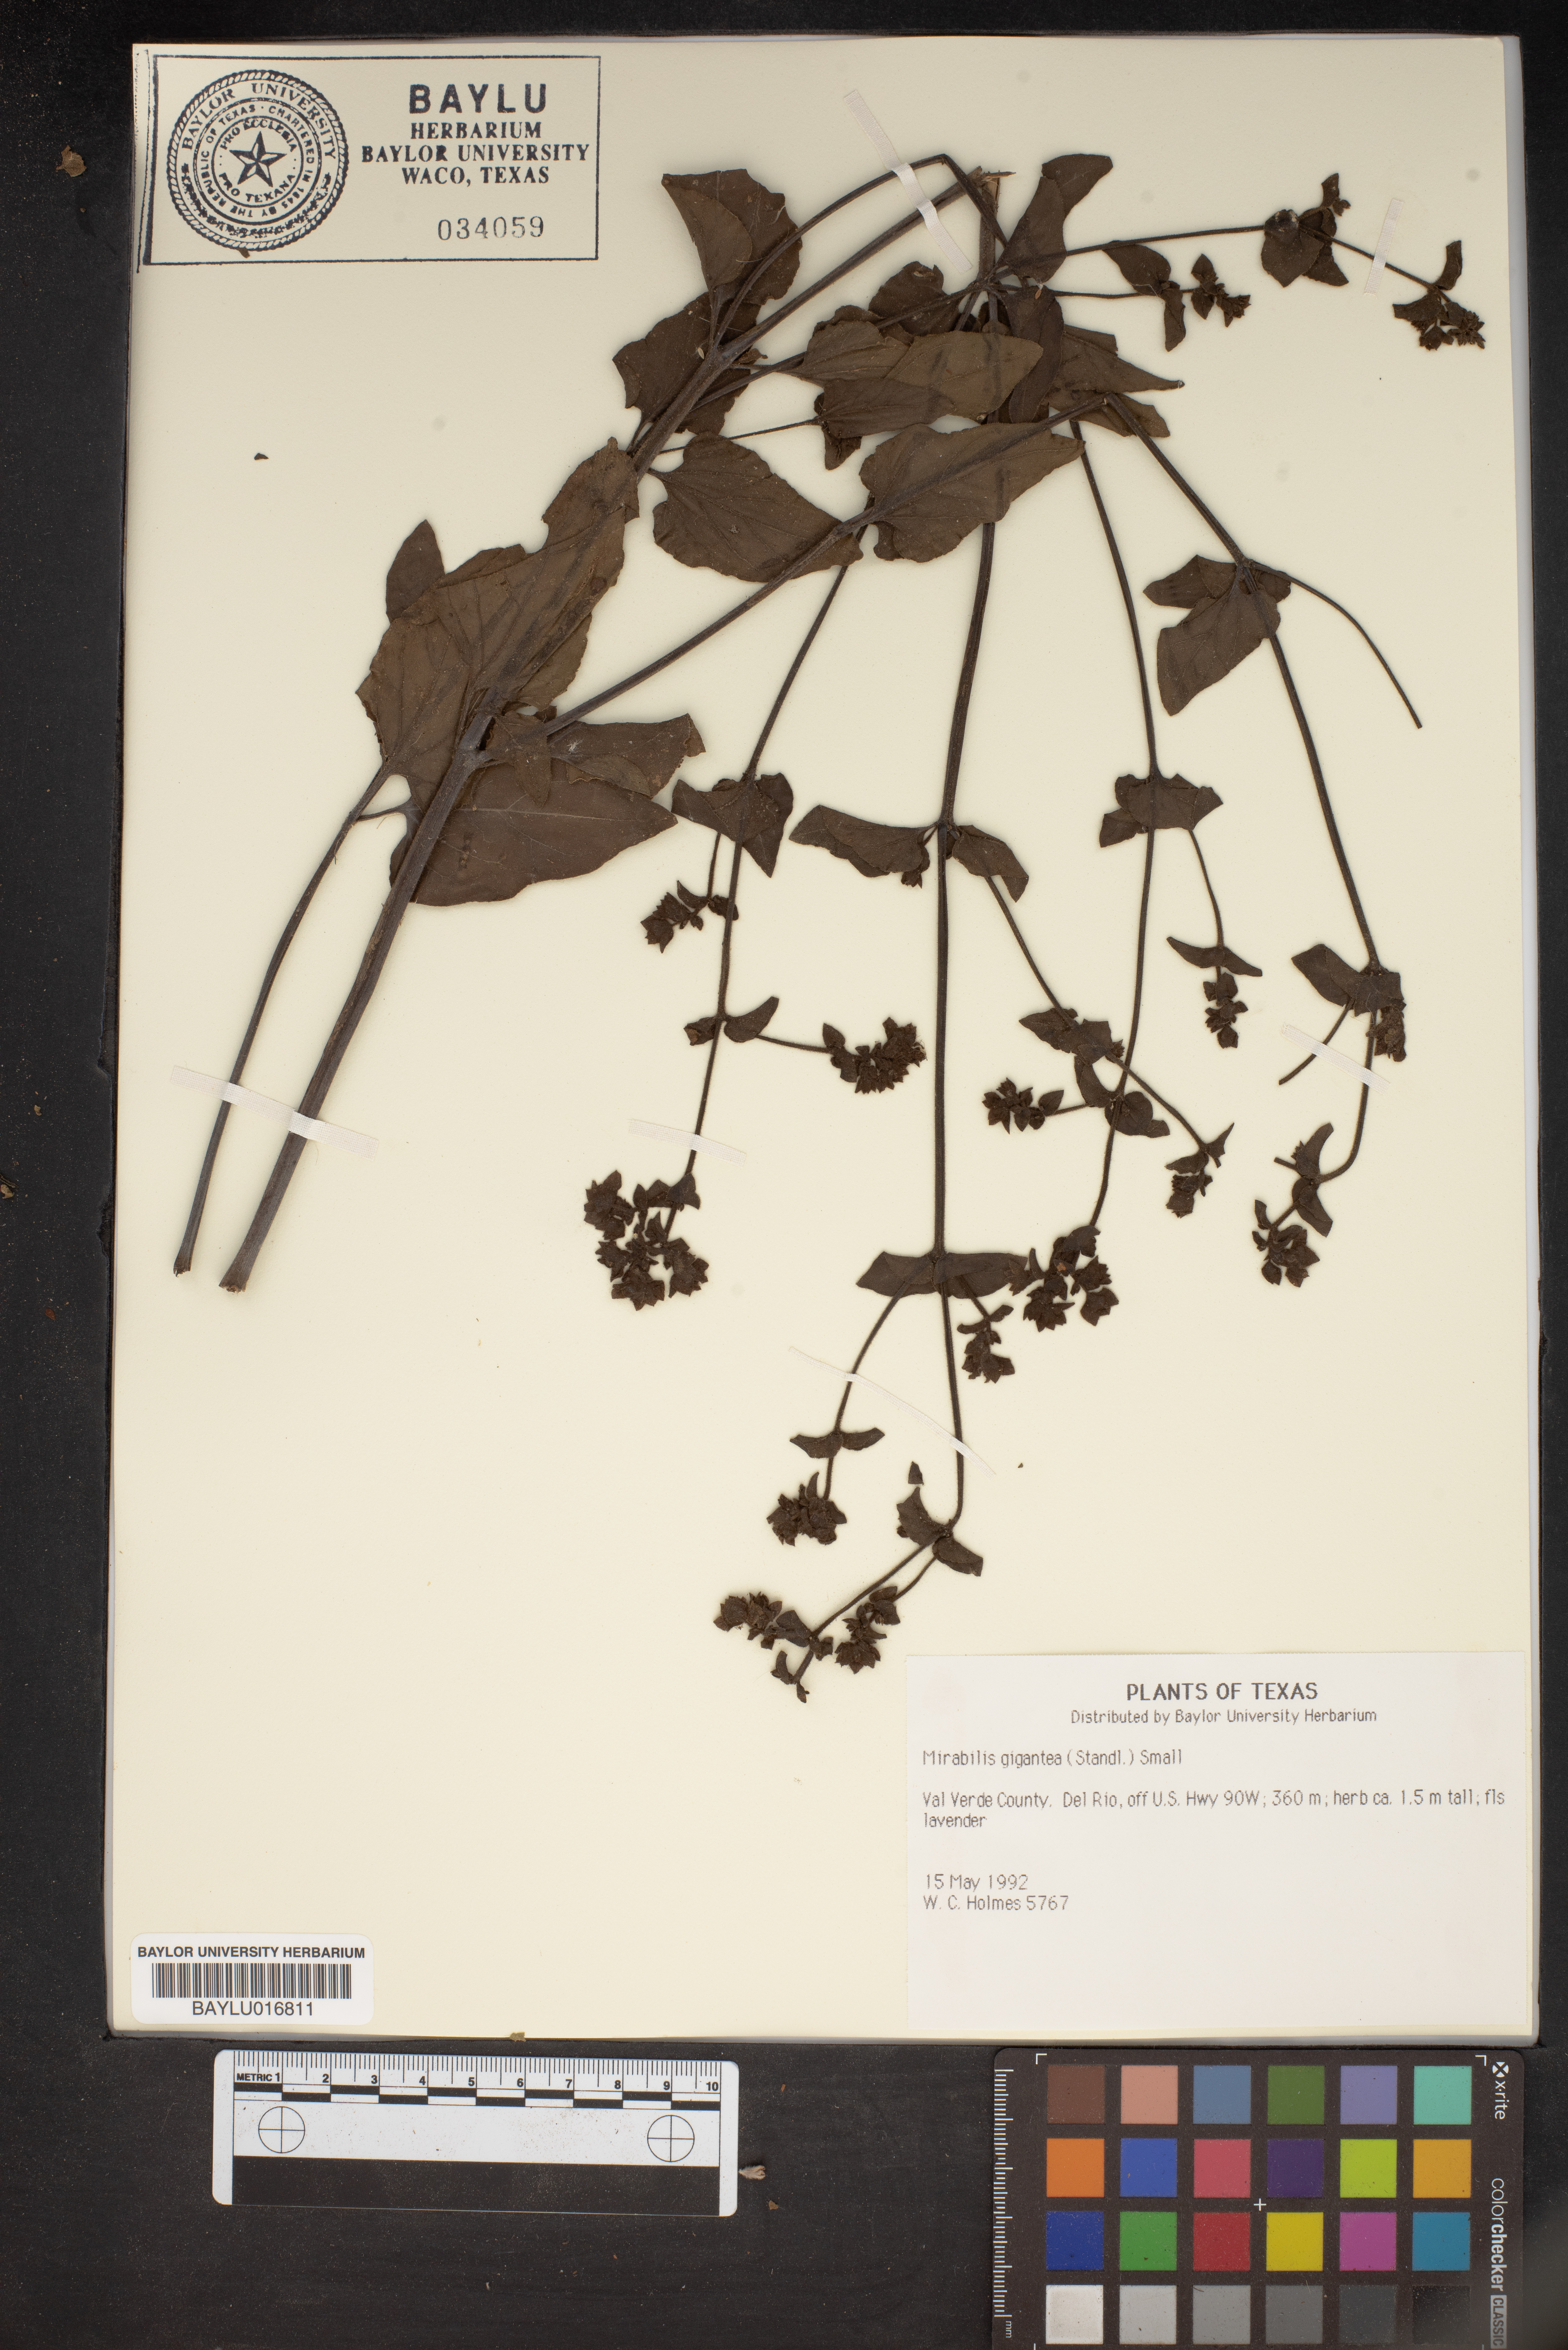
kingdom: Plantae
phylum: Tracheophyta
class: Magnoliopsida
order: Caryophyllales
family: Nyctaginaceae
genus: Mirabilis
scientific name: Mirabilis gigantea
